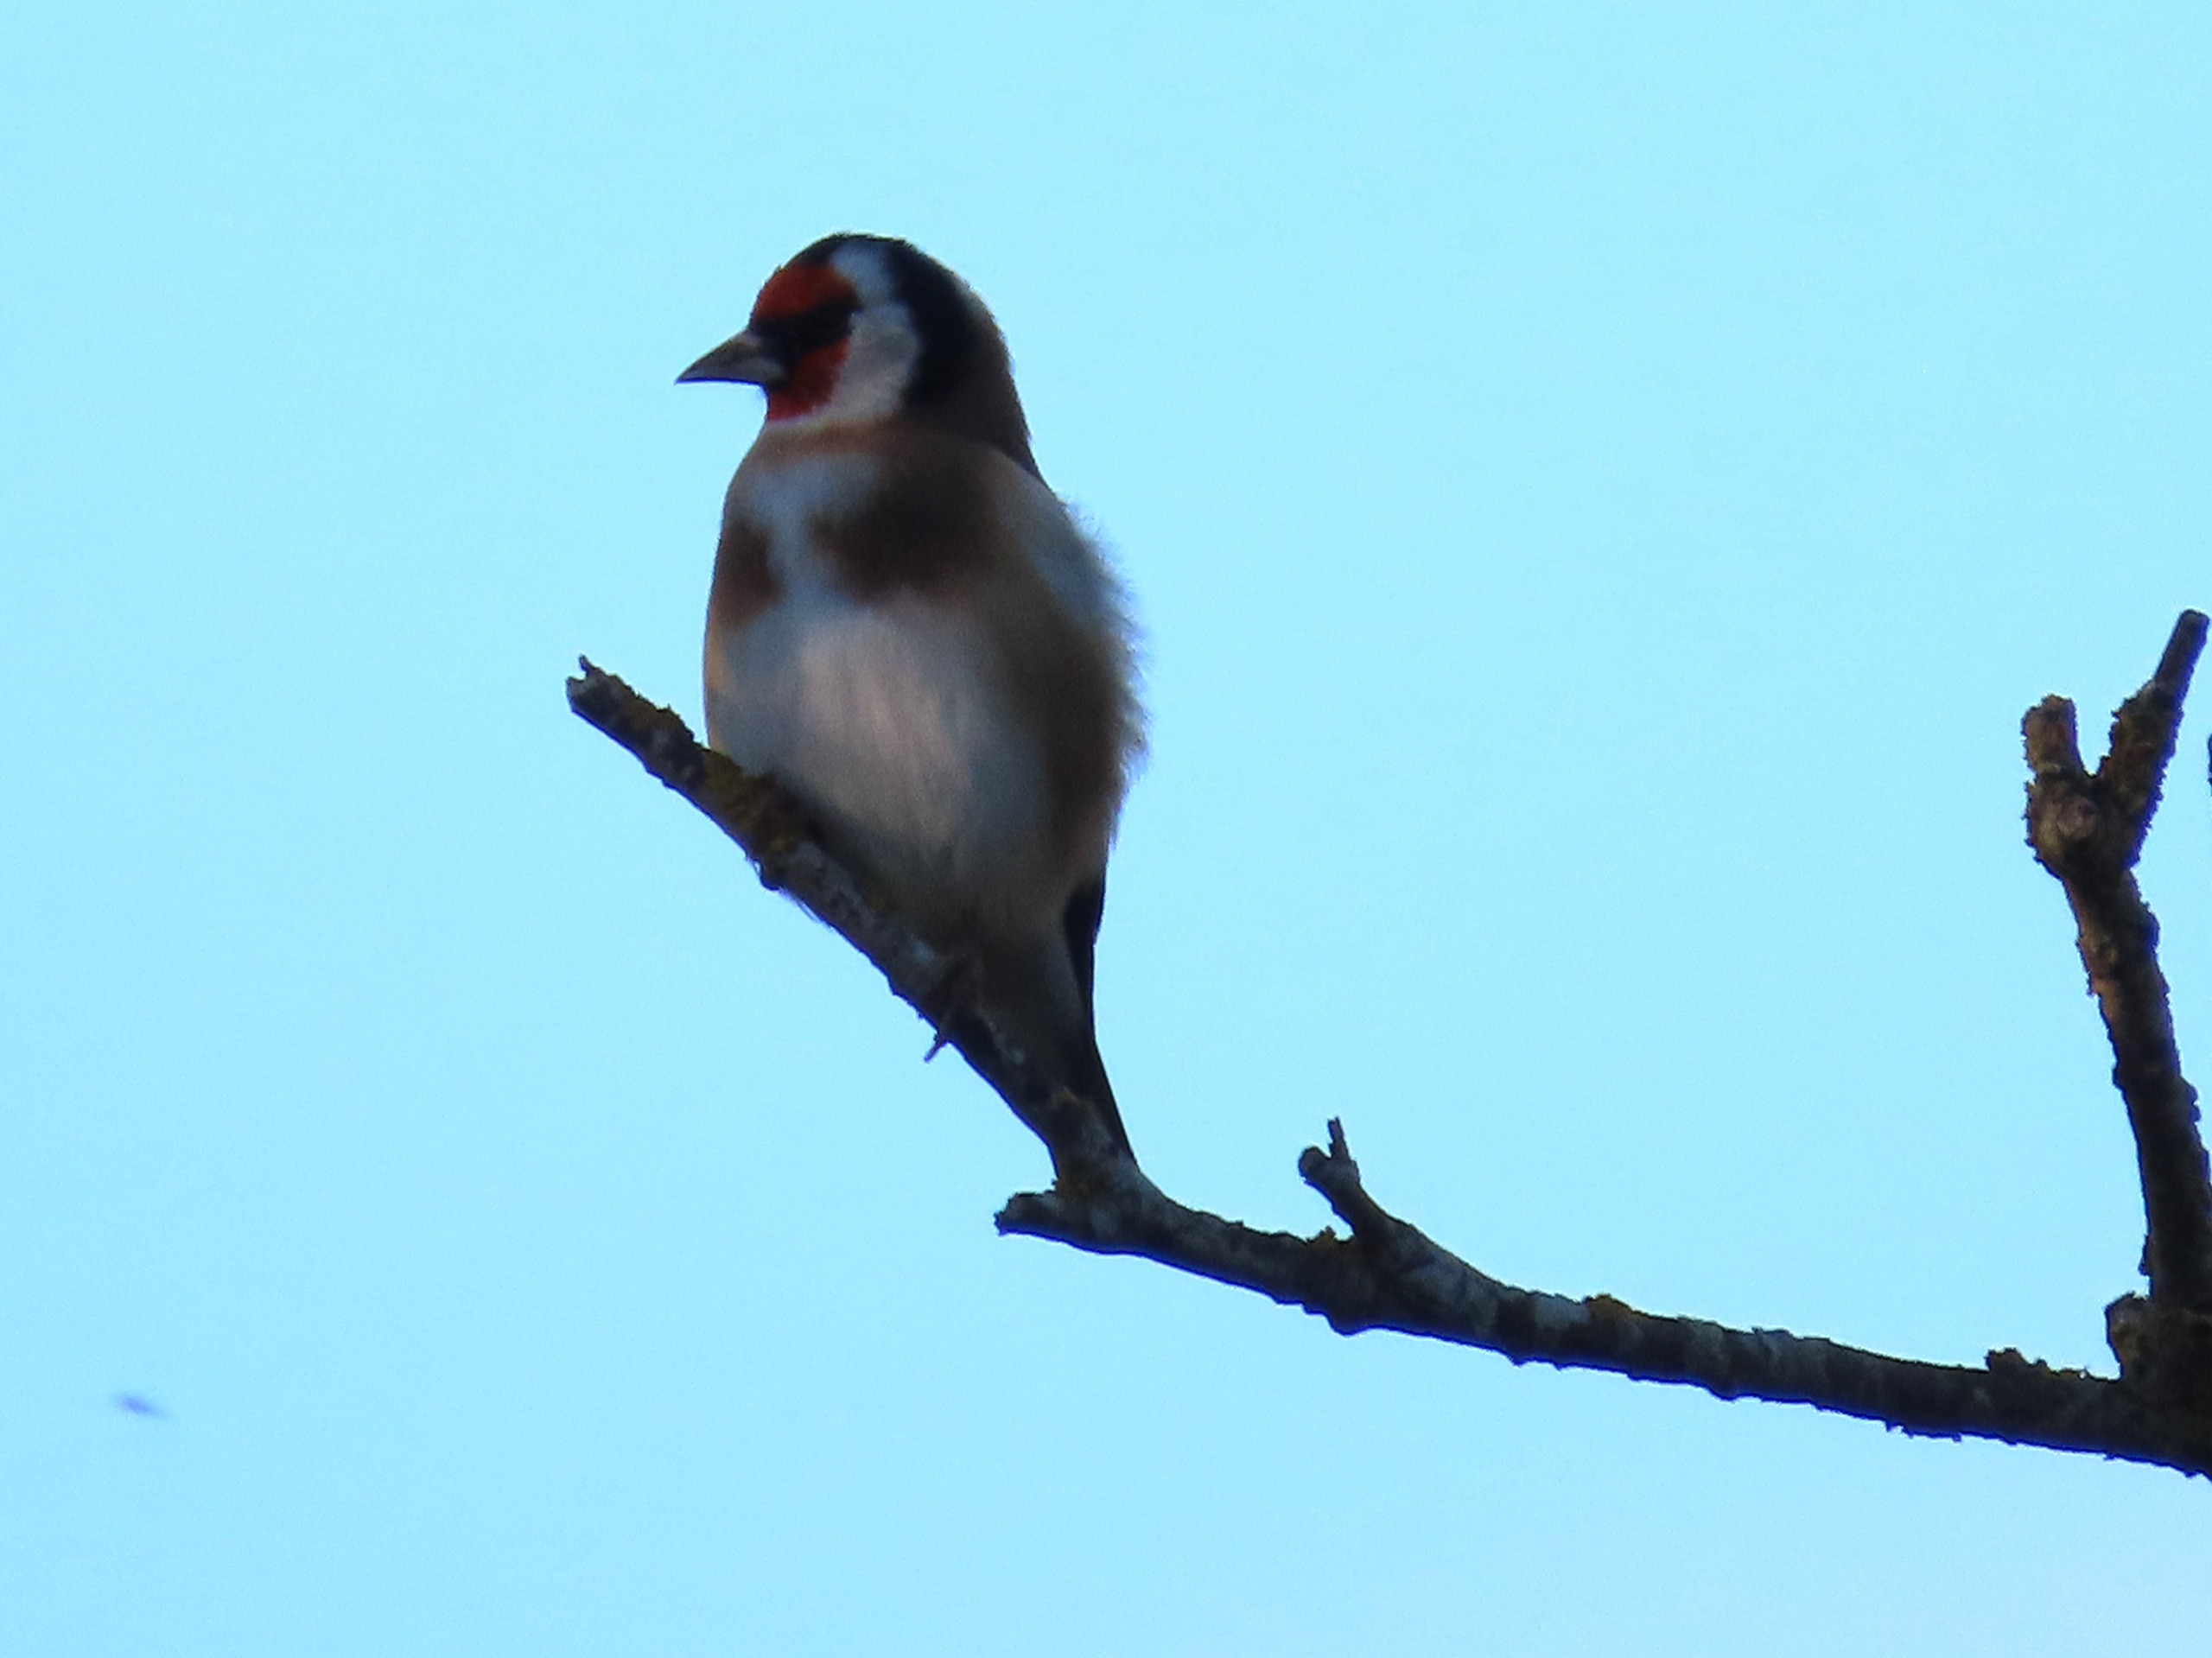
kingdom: Animalia
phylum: Chordata
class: Aves
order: Passeriformes
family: Fringillidae
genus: Carduelis
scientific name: Carduelis carduelis
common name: Stillits
